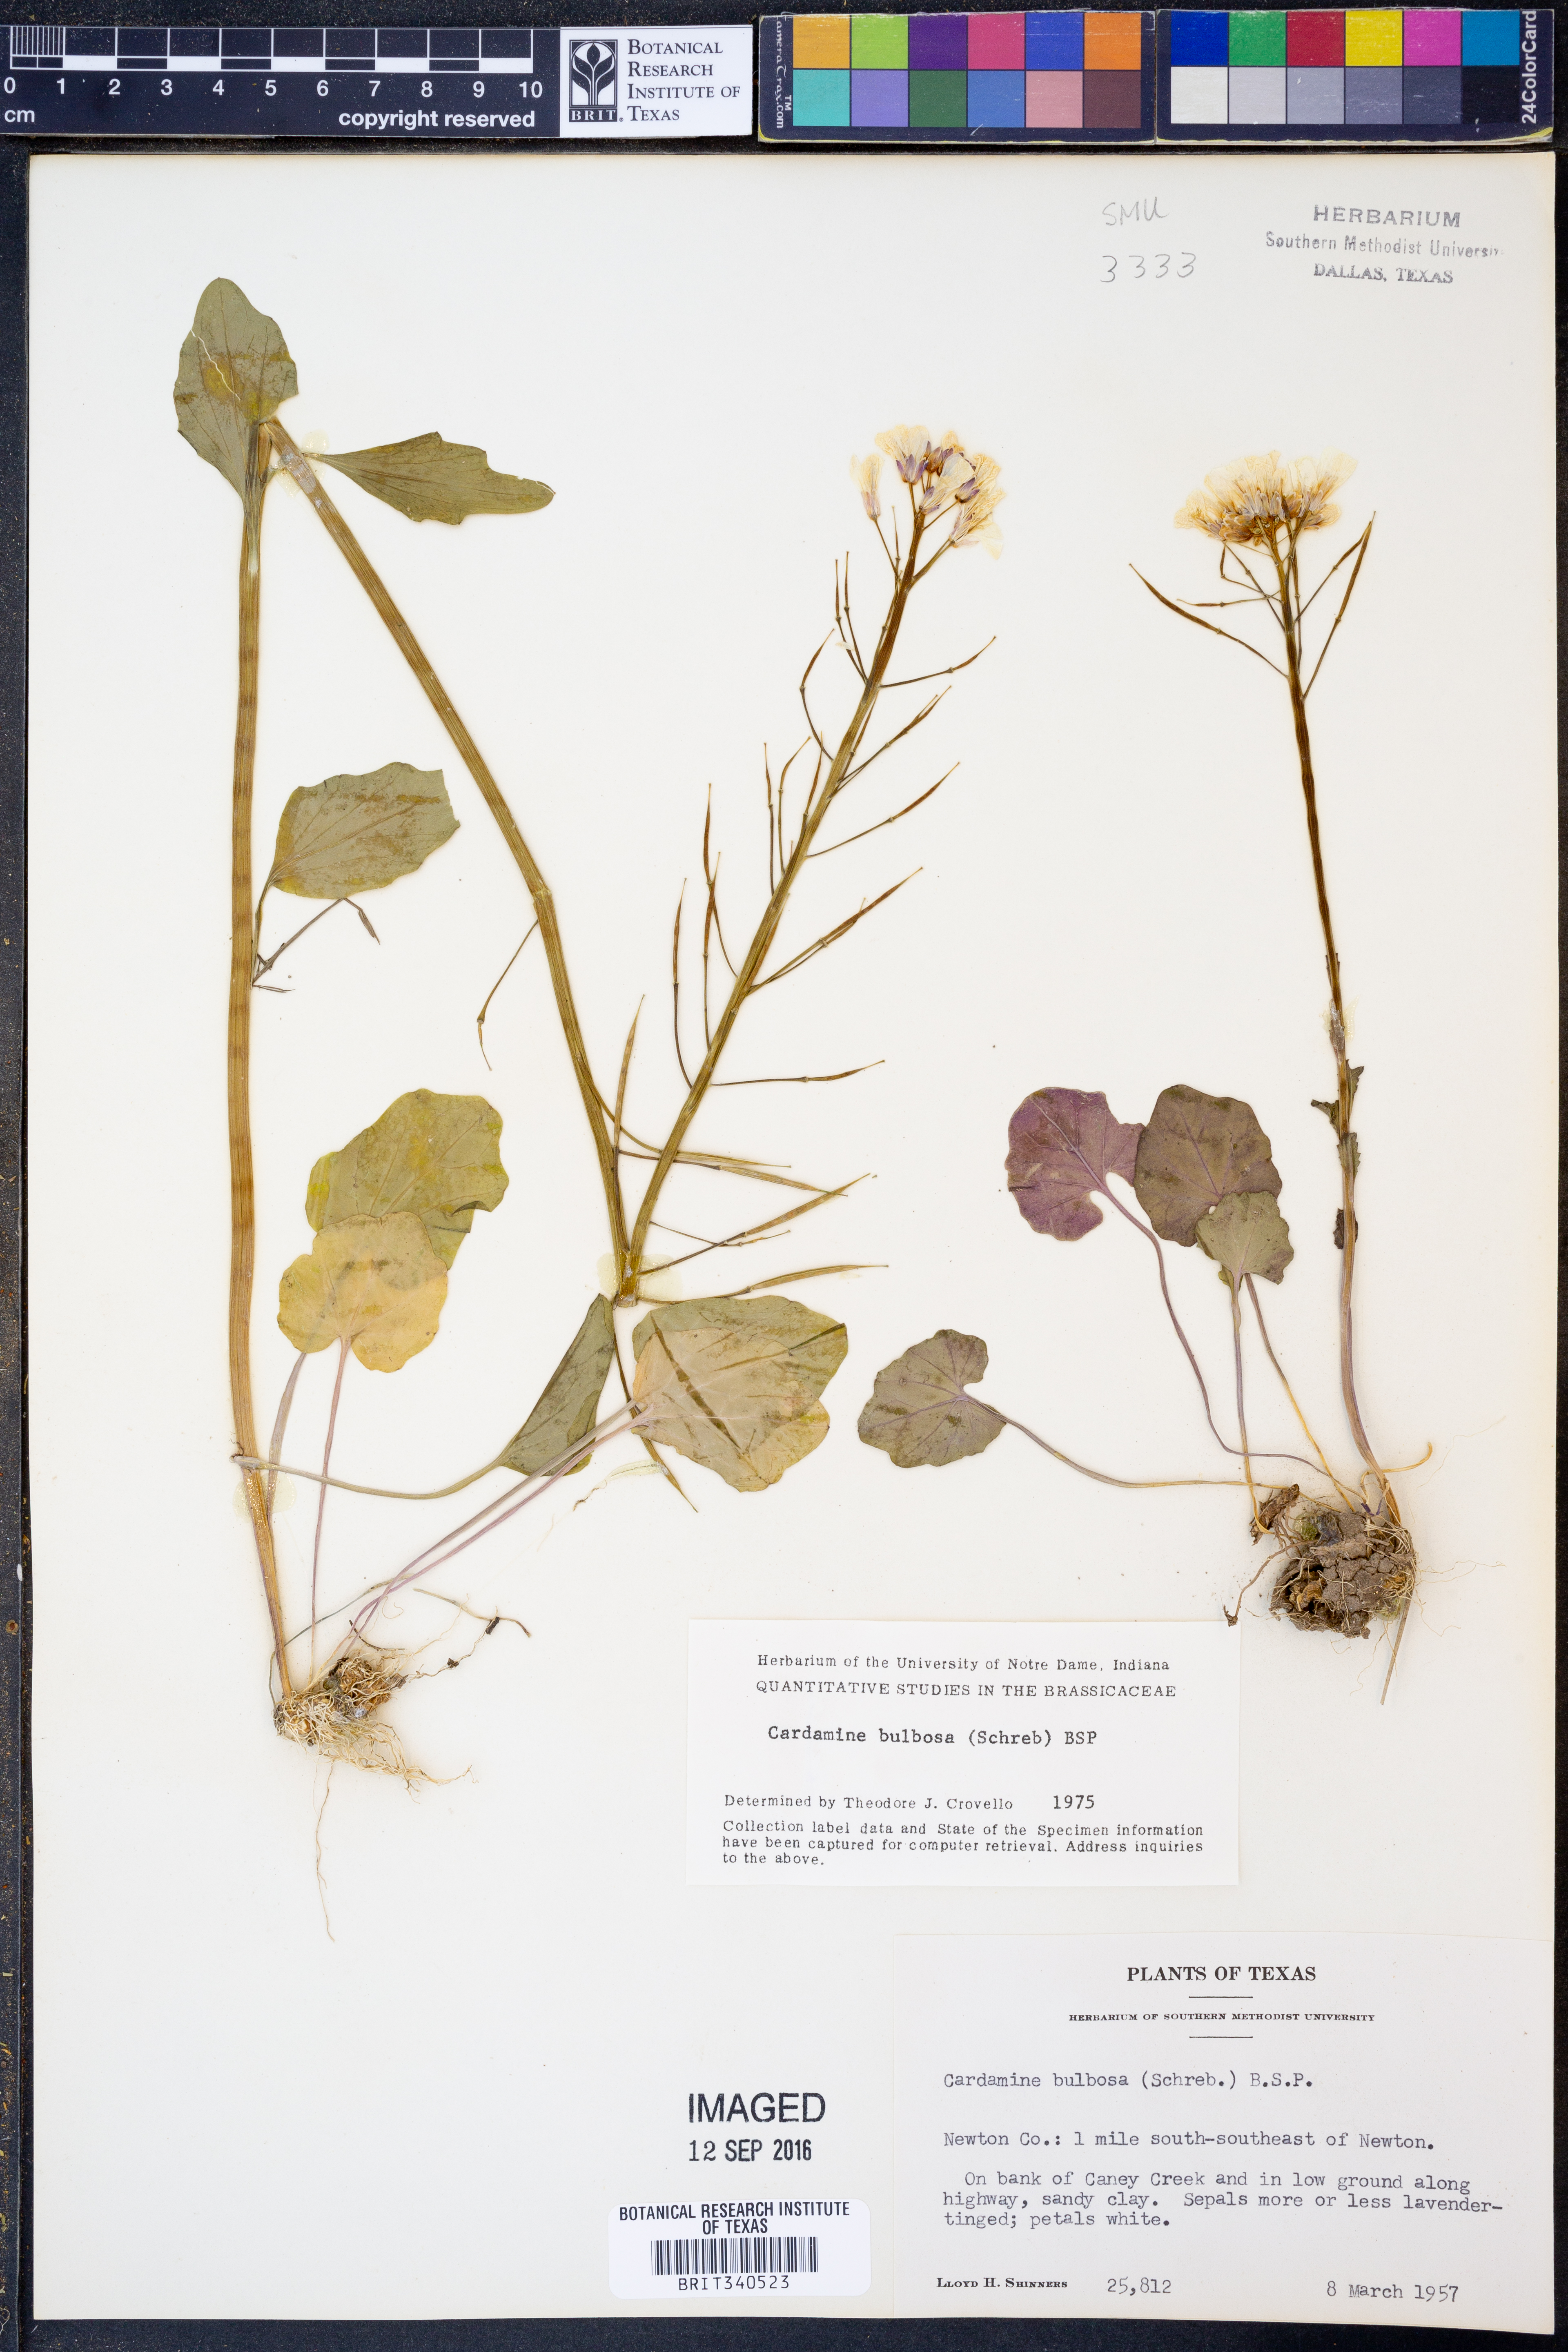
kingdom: Plantae
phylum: Tracheophyta
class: Magnoliopsida
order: Brassicales
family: Brassicaceae
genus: Cardamine
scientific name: Cardamine bulbosa
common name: Spring cress
